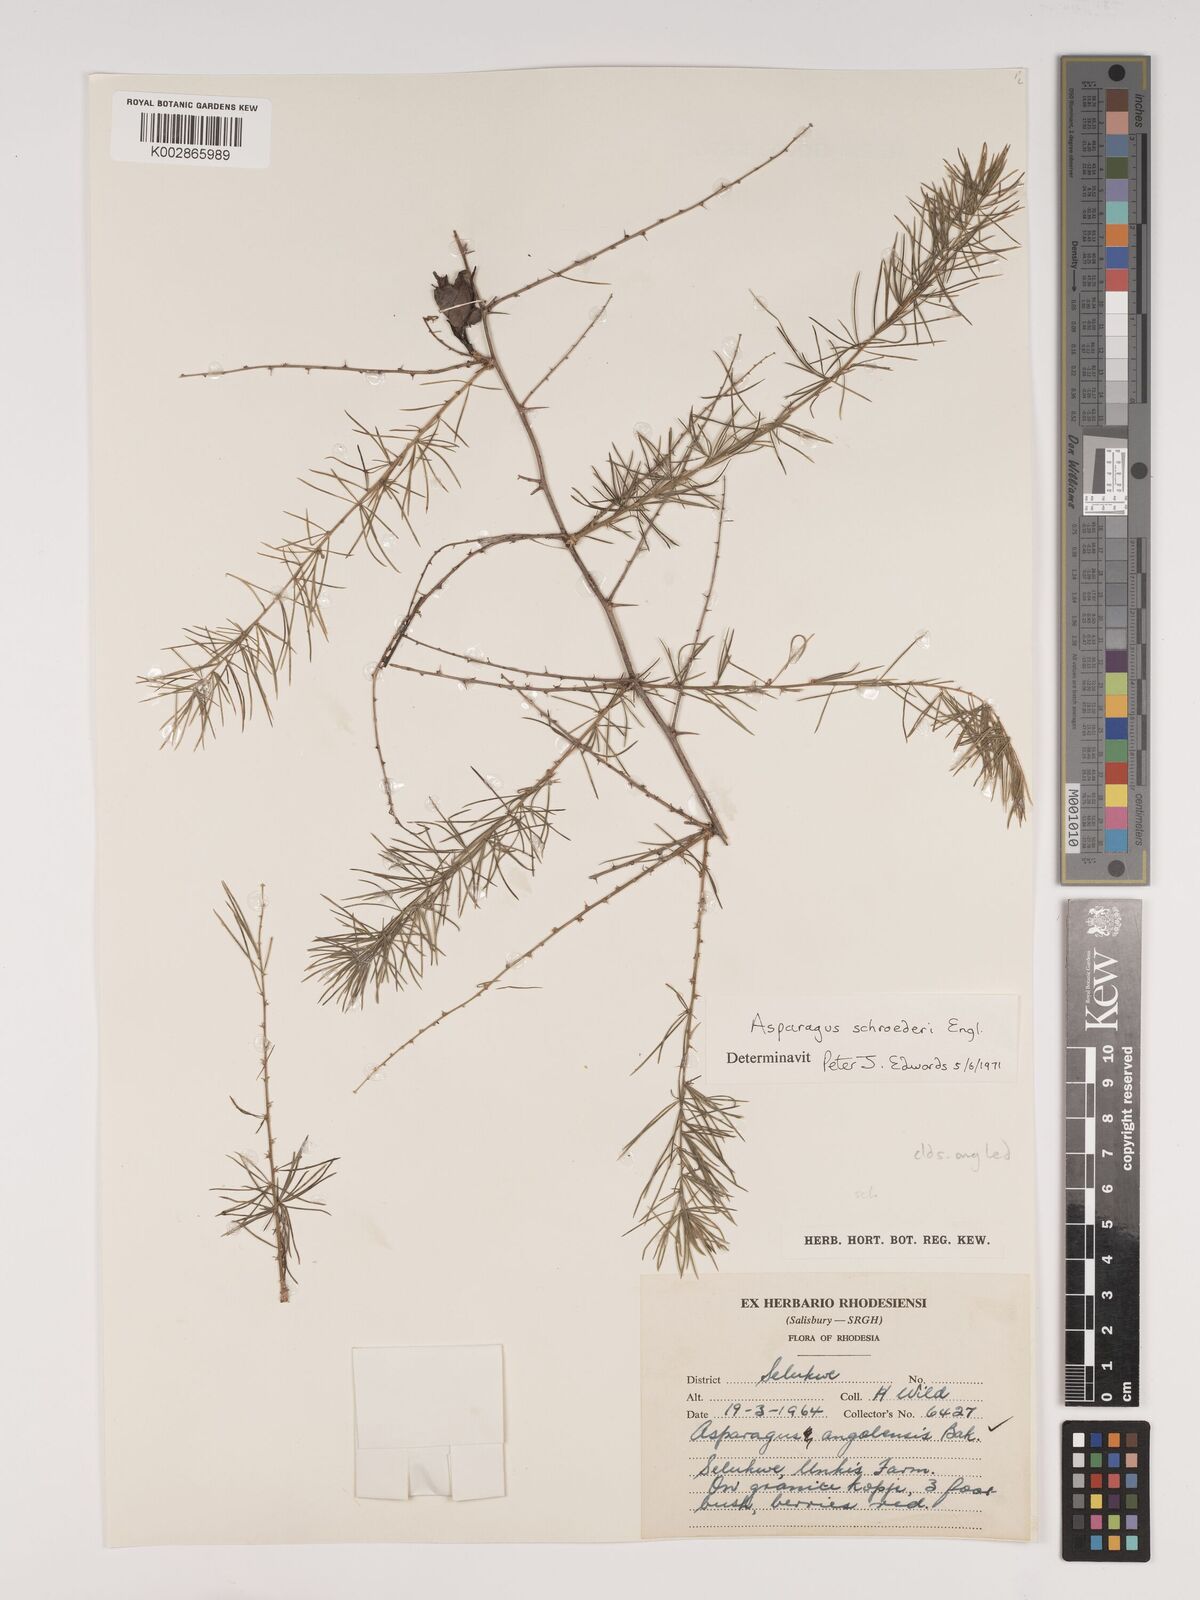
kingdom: Plantae
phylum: Tracheophyta
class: Liliopsida
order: Asparagales
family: Asparagaceae
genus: Asparagus
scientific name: Asparagus schroederi
